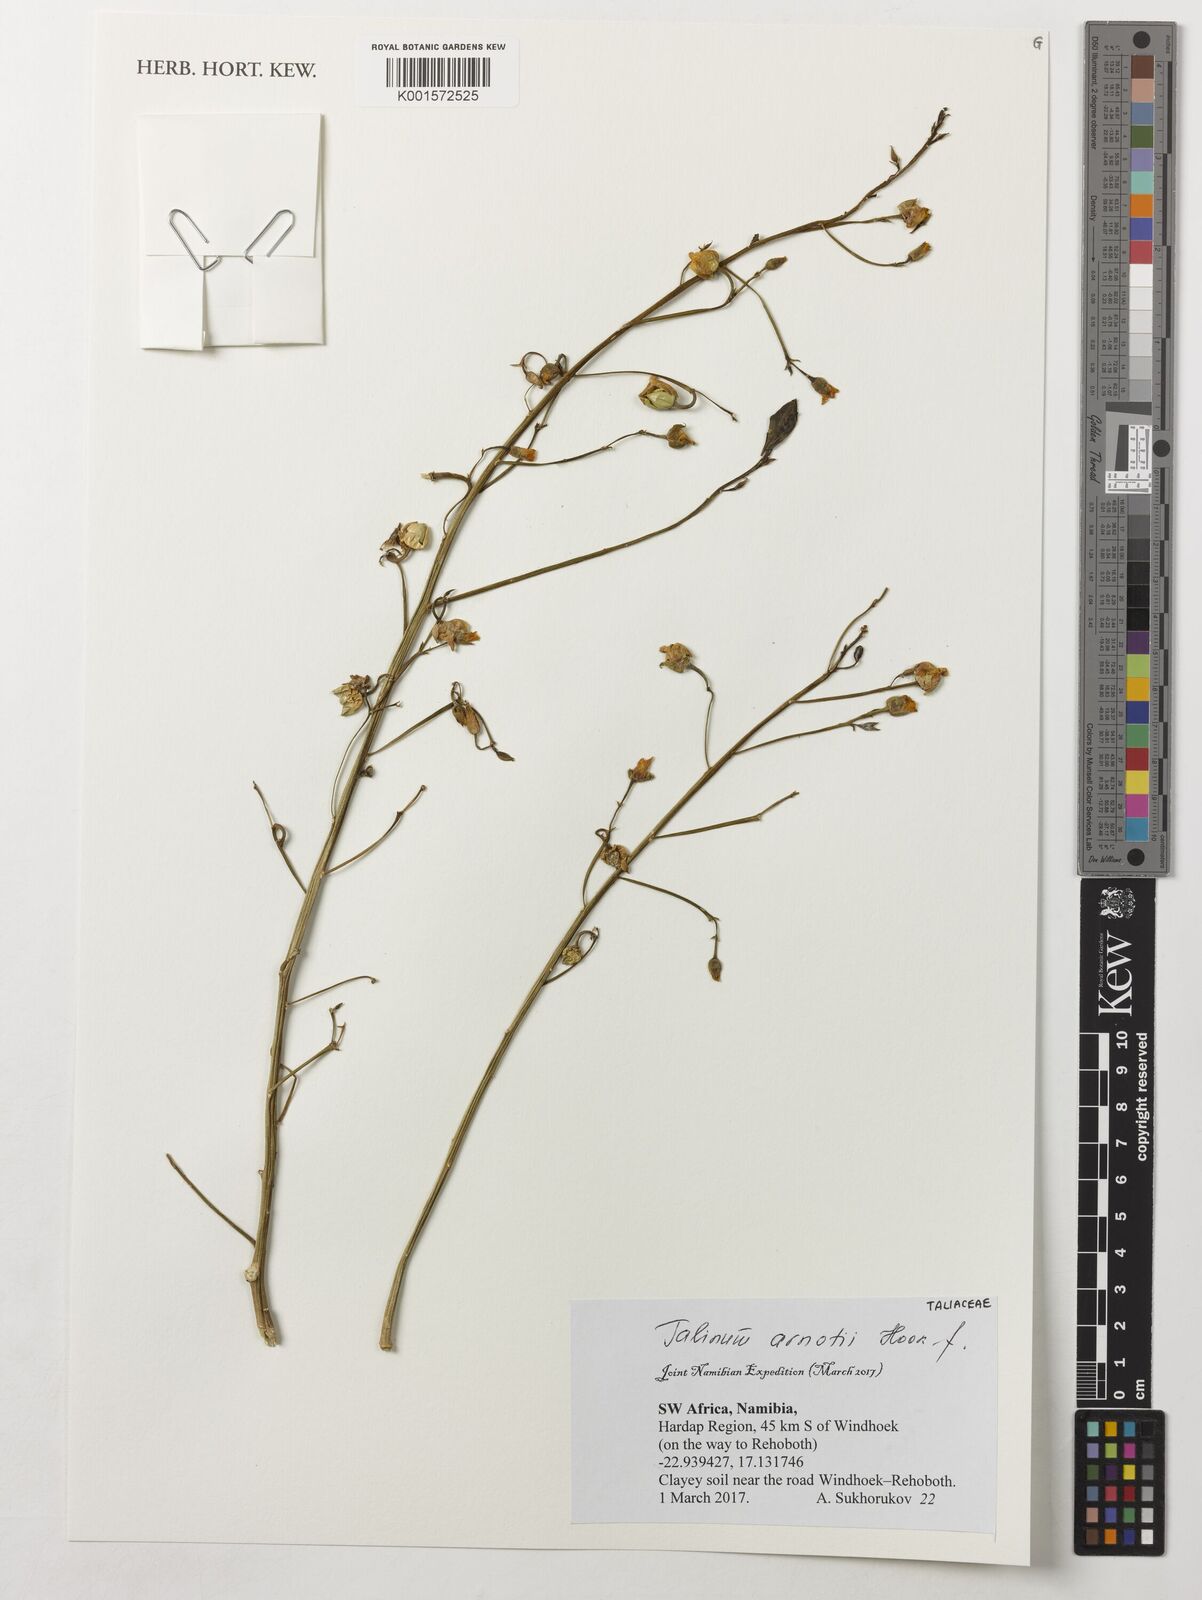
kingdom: Plantae
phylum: Tracheophyta
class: Magnoliopsida
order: Caryophyllales
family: Talinaceae
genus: Talinum
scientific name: Talinum arnotii
